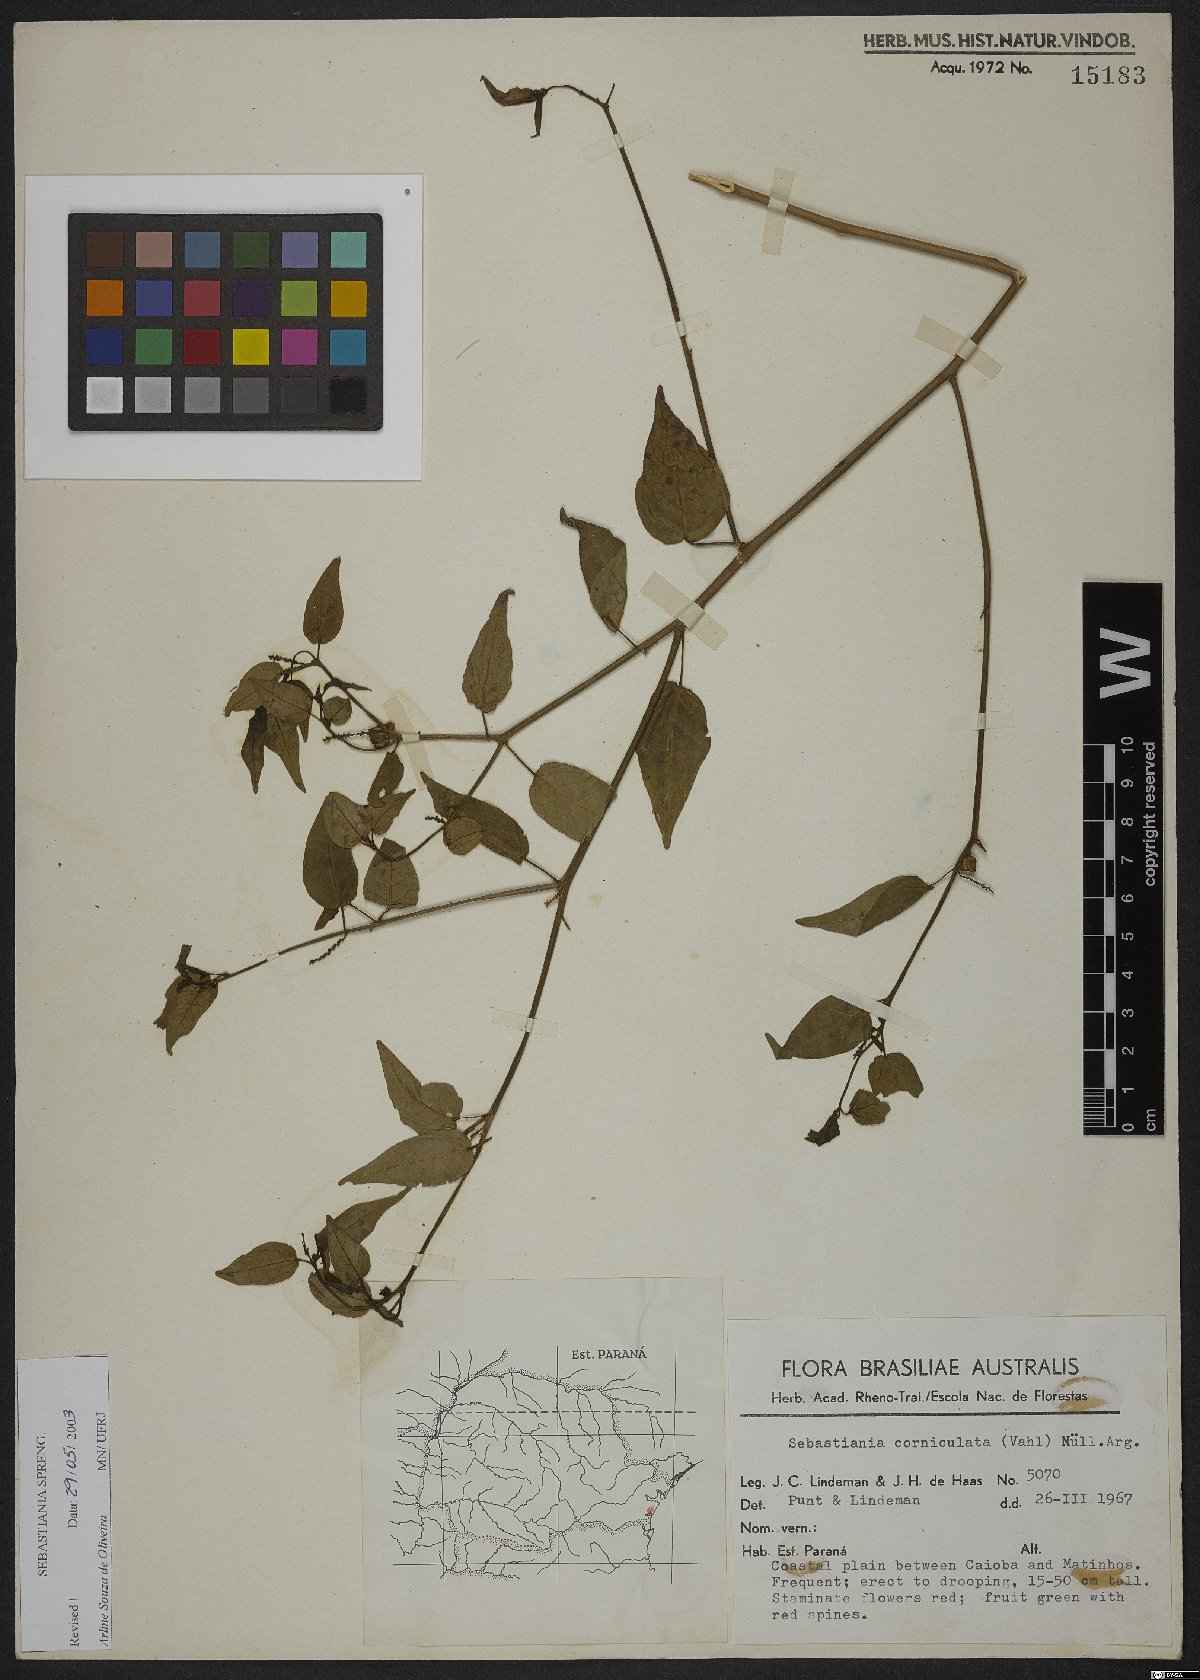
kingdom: Plantae
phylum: Tracheophyta
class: Magnoliopsida
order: Malpighiales
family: Euphorbiaceae
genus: Microstachys
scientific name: Microstachys corniculata
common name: Hato tejas
